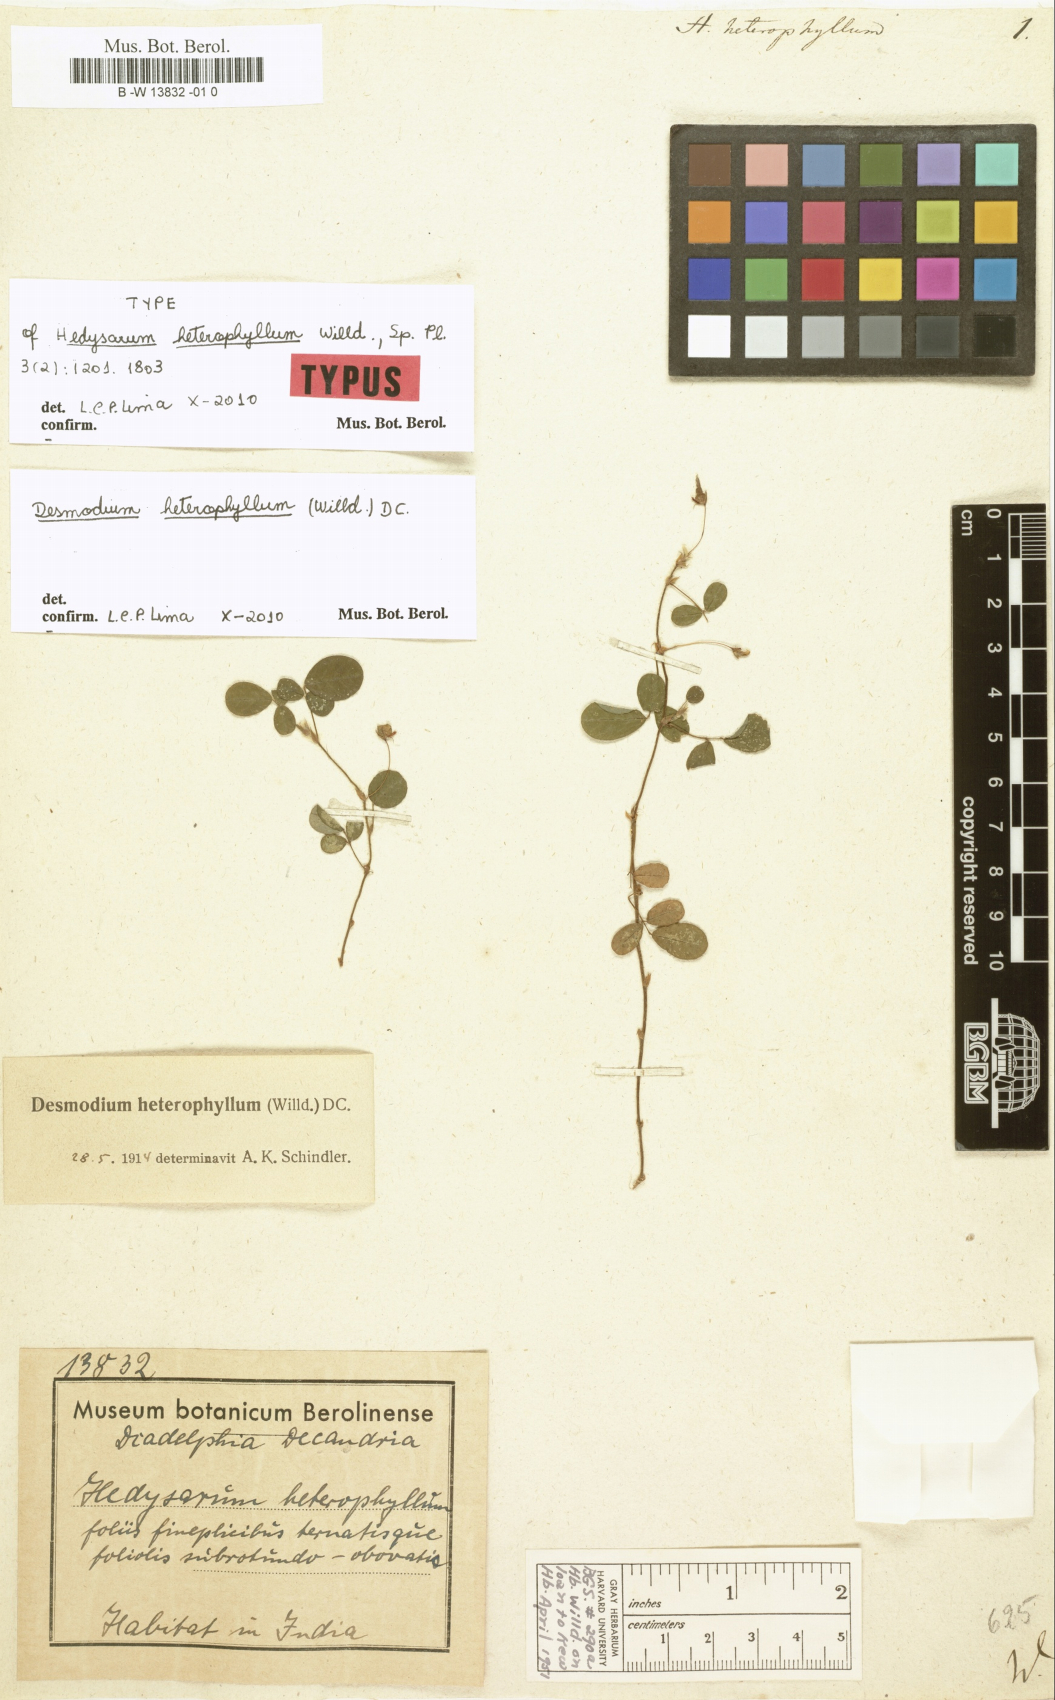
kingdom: Plantae
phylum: Tracheophyta
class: Magnoliopsida
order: Fabales
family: Fabaceae
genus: Grona
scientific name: Grona heterophylla
